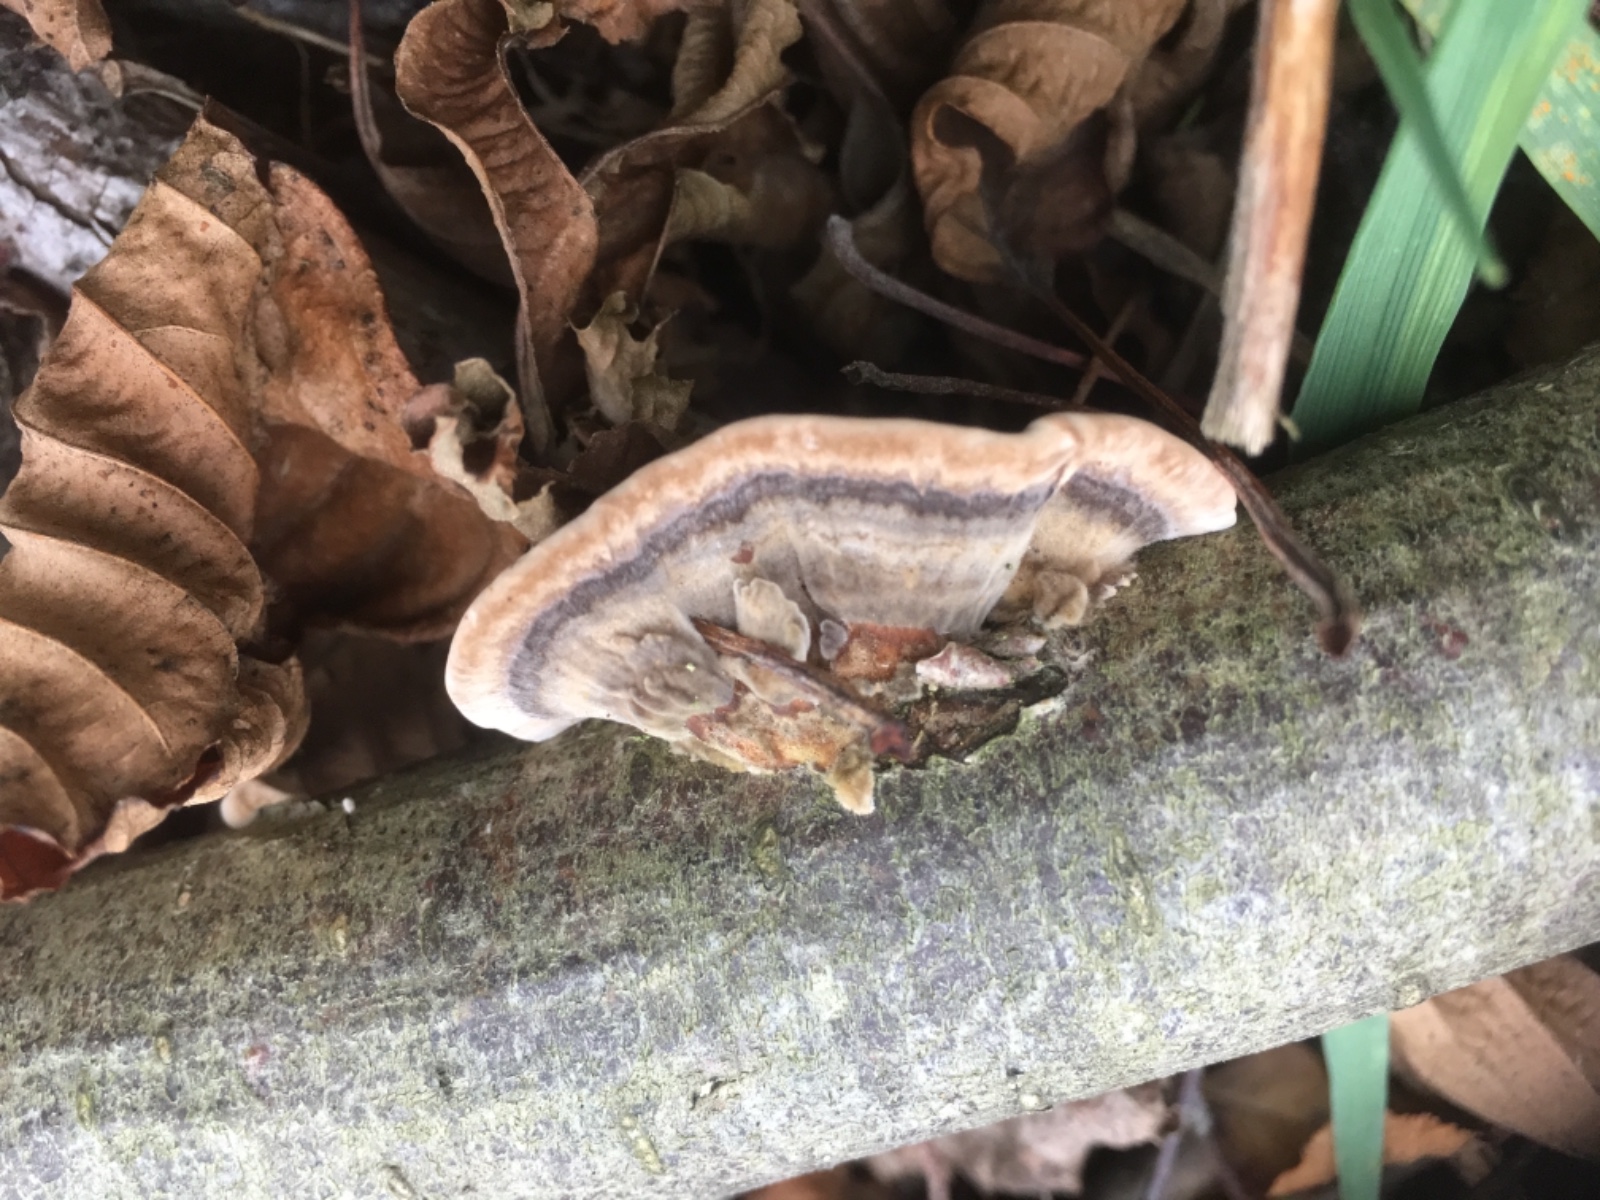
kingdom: Fungi
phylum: Basidiomycota
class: Agaricomycetes
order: Polyporales
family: Polyporaceae
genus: Trametes
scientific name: Trametes versicolor
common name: broget læderporesvamp
